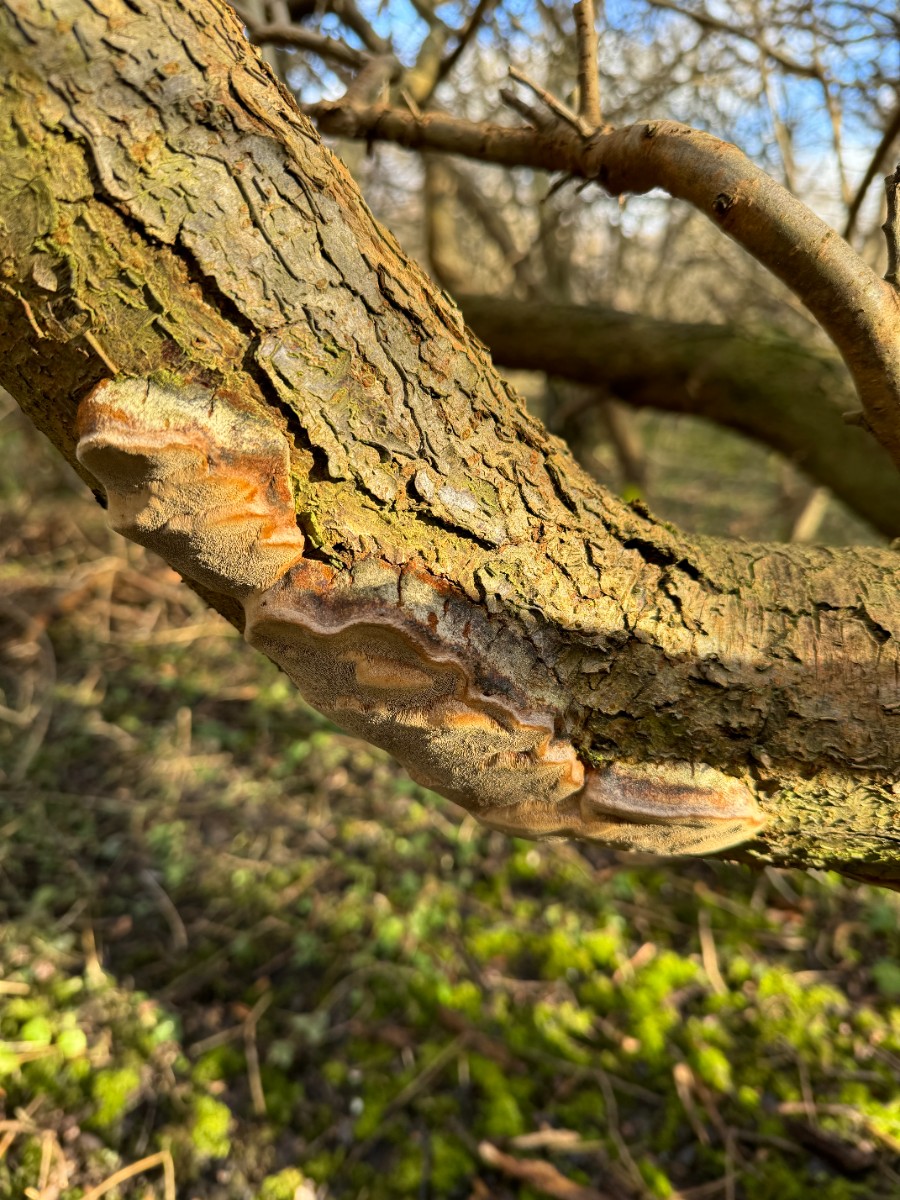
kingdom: Fungi
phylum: Basidiomycota
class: Agaricomycetes
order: Hymenochaetales
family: Hymenochaetaceae
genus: Phellinus
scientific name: Phellinus pomaceus
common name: blomme-ildporesvamp
